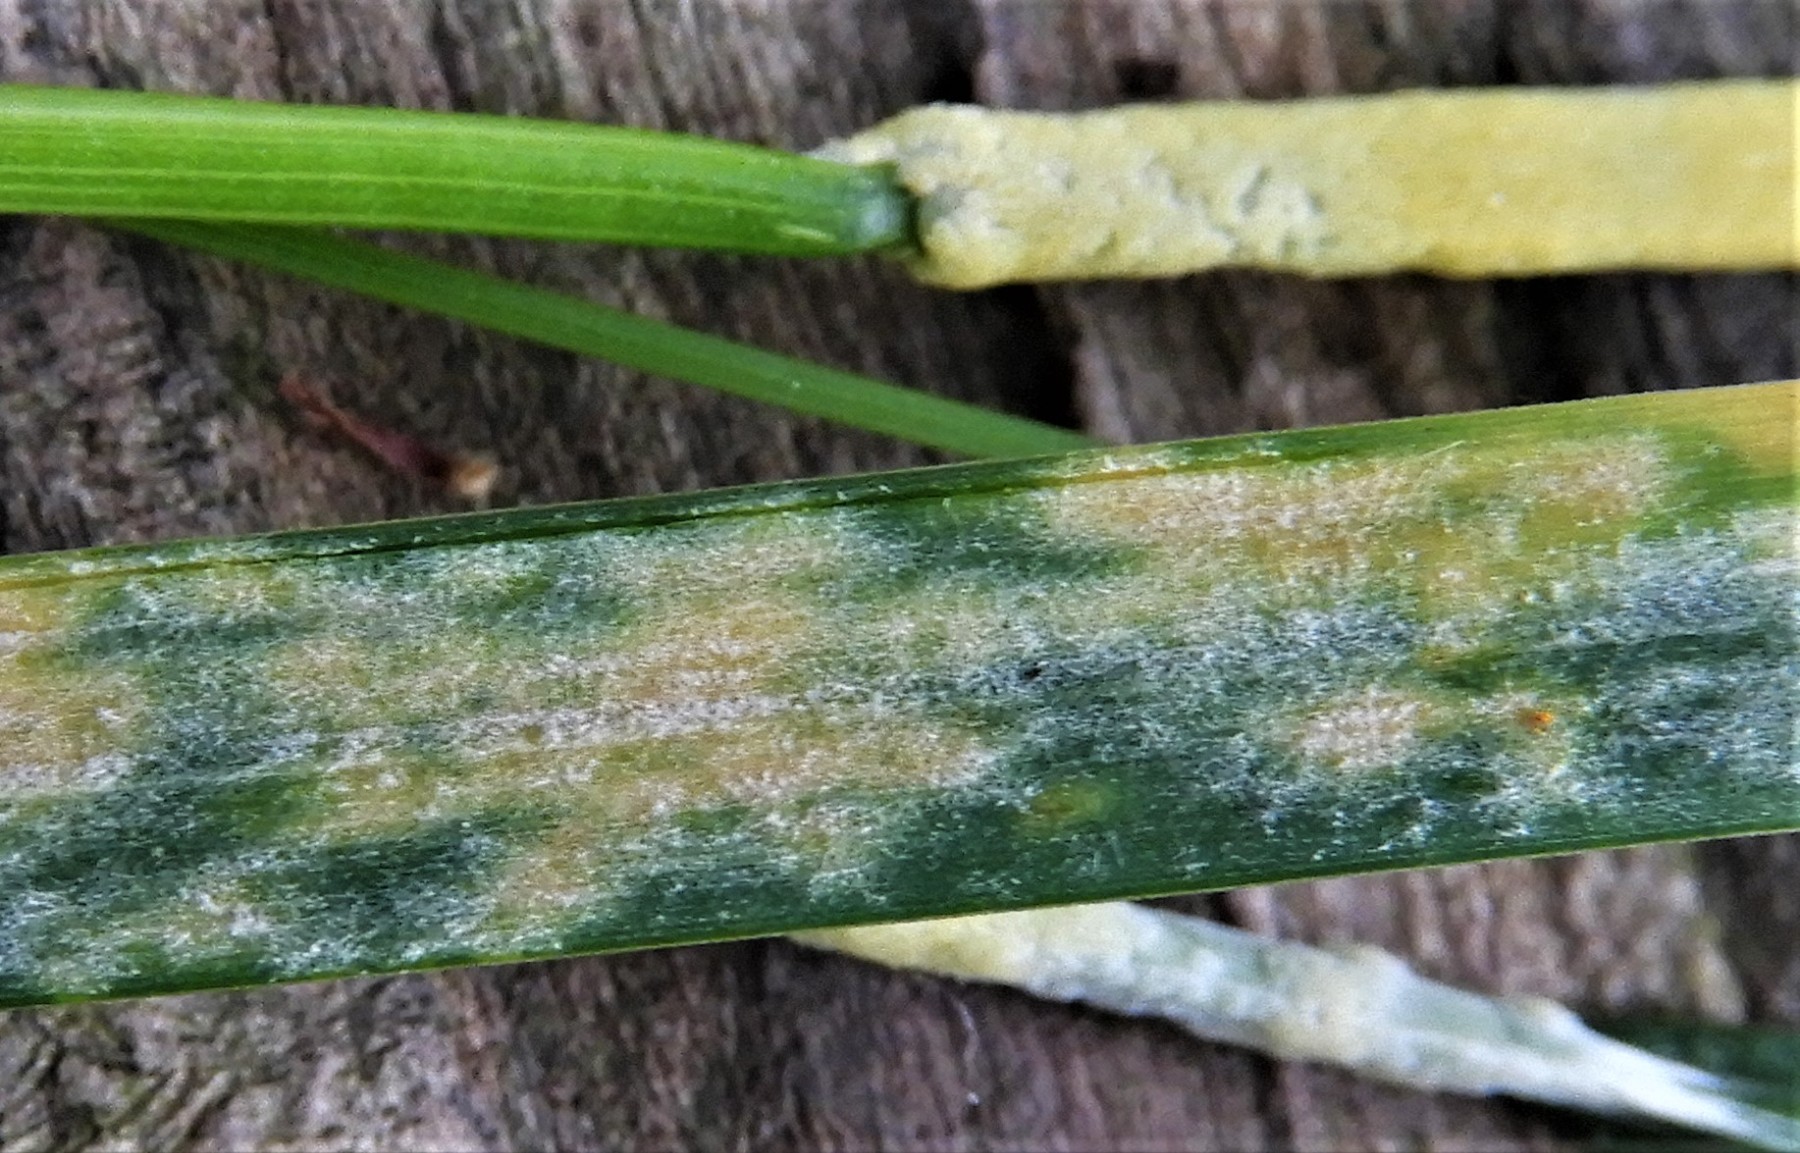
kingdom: Fungi
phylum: Ascomycota
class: Sordariomycetes
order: Hypocreales
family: Clavicipitaceae
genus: Epichloe
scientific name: Epichloe typhina
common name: almindelig kernerør
